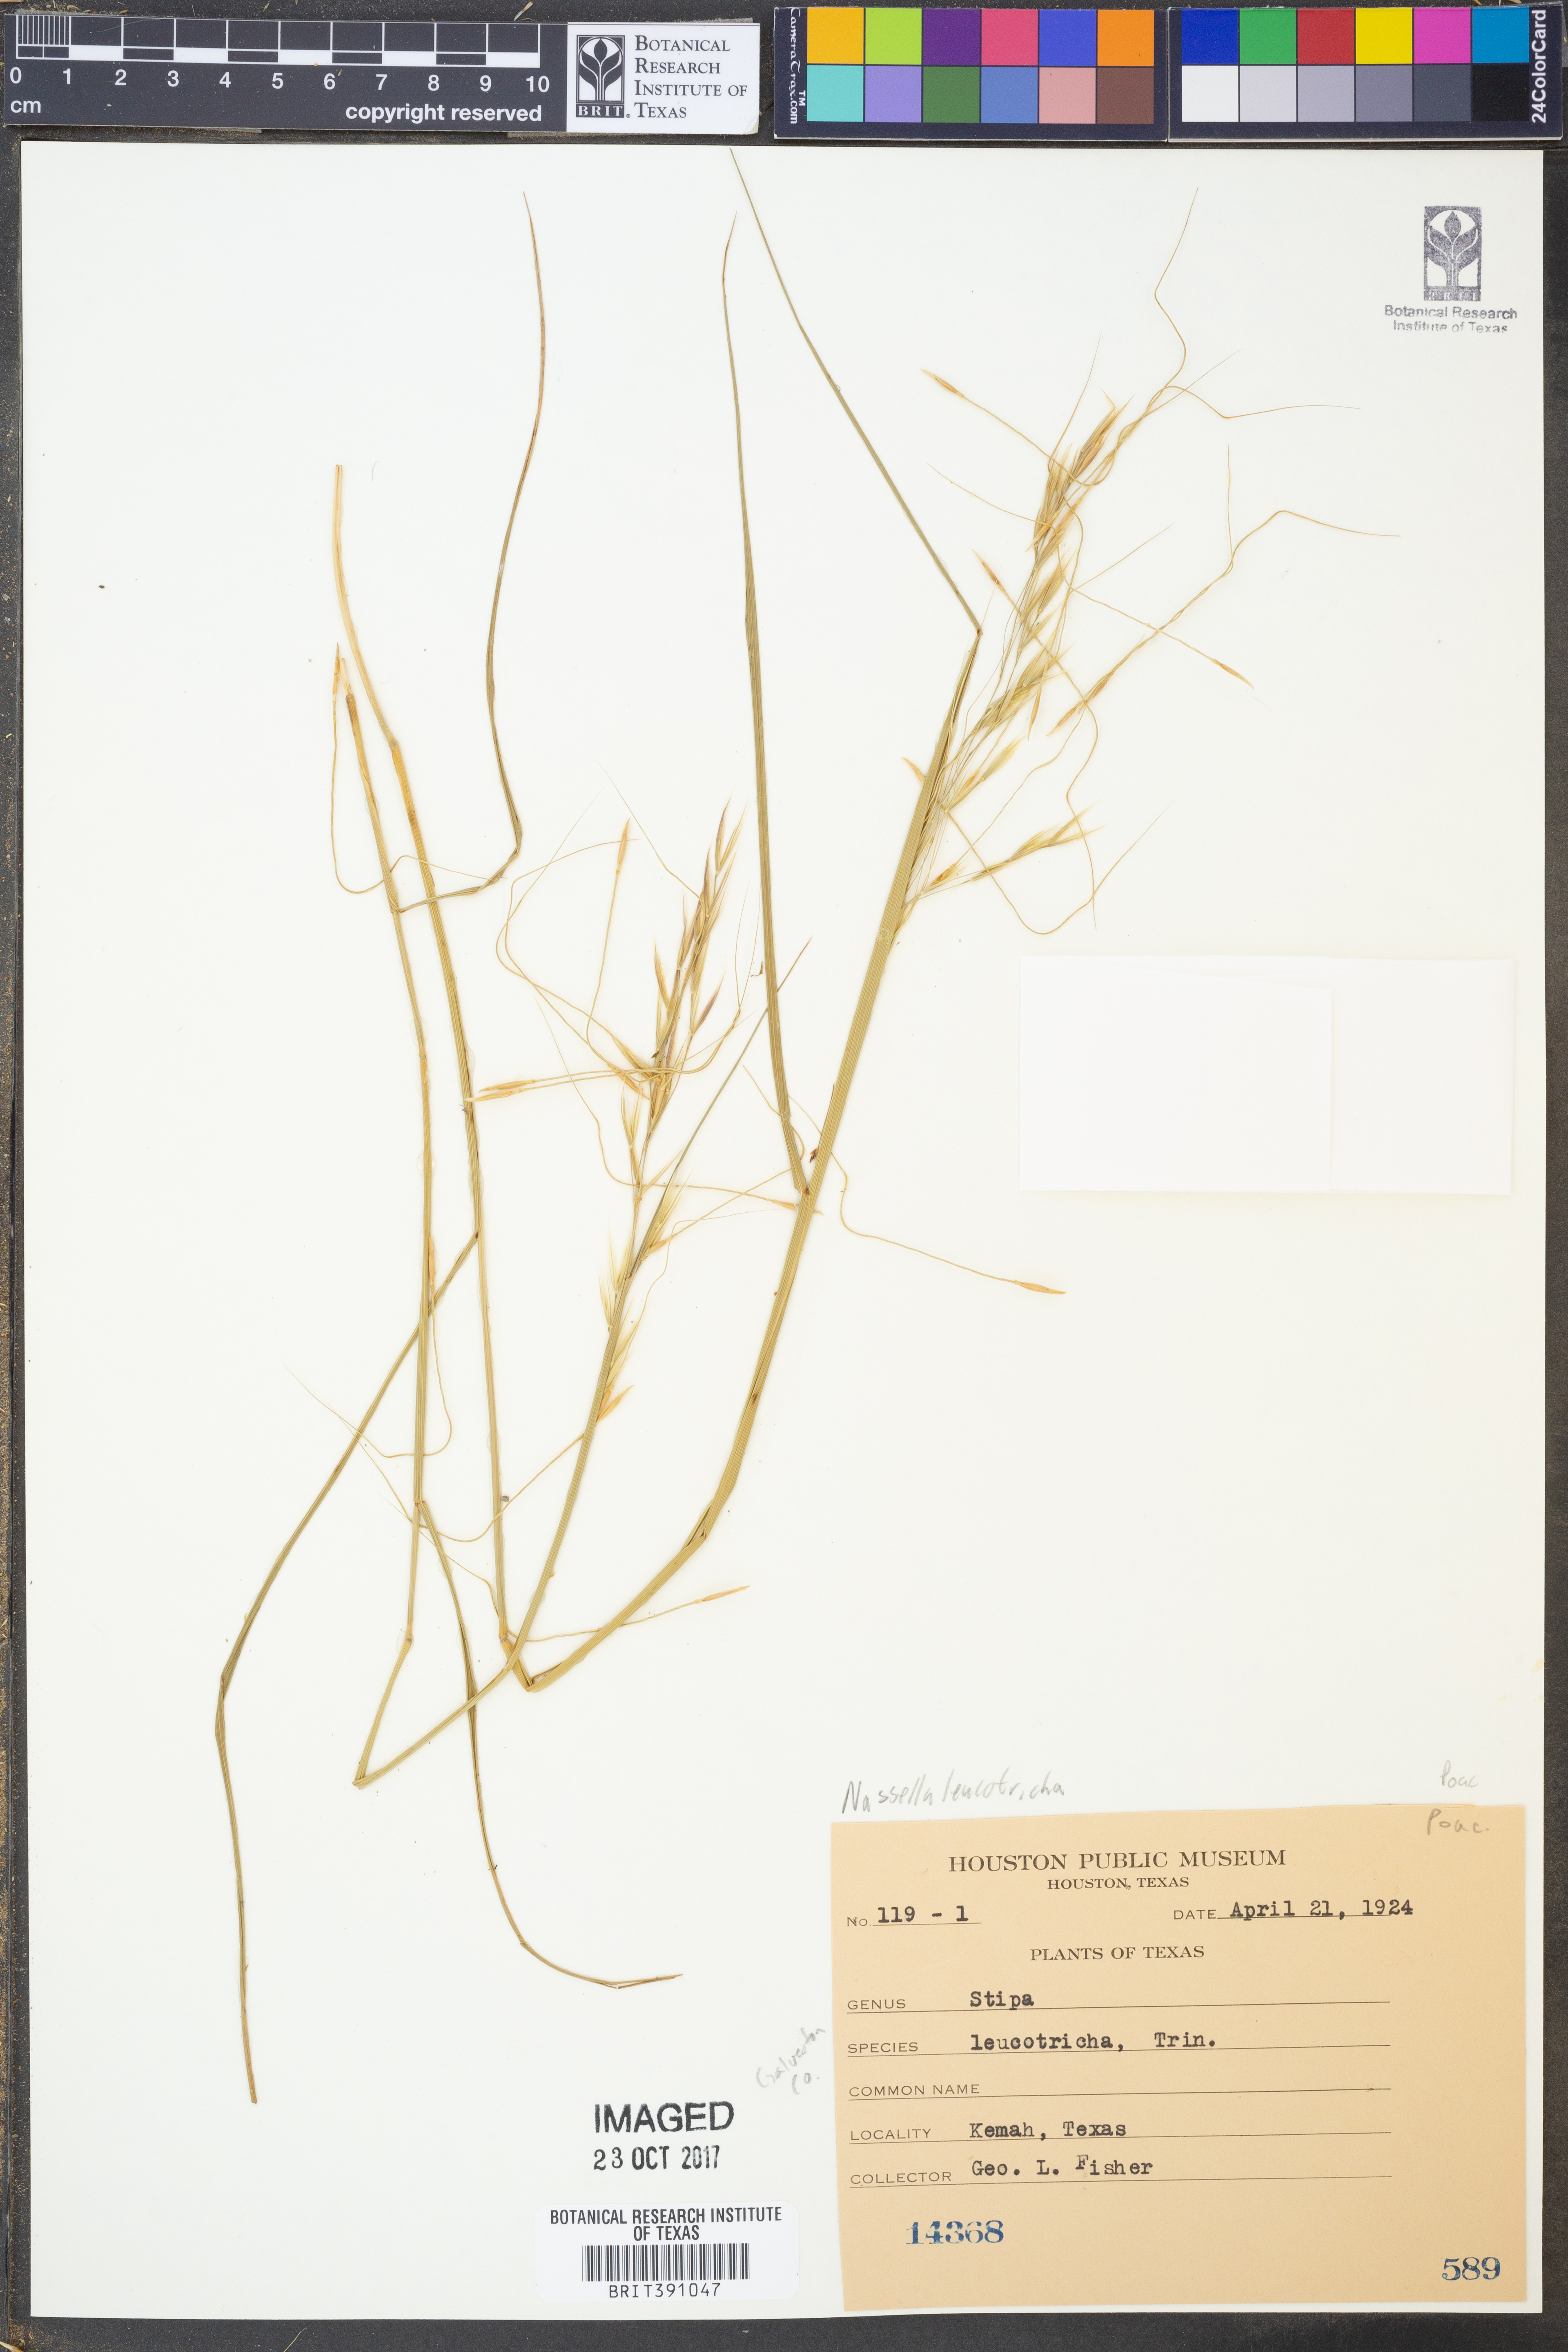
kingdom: Plantae
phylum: Tracheophyta
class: Liliopsida
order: Poales
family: Poaceae
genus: Nassella
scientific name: Nassella leucotricha
